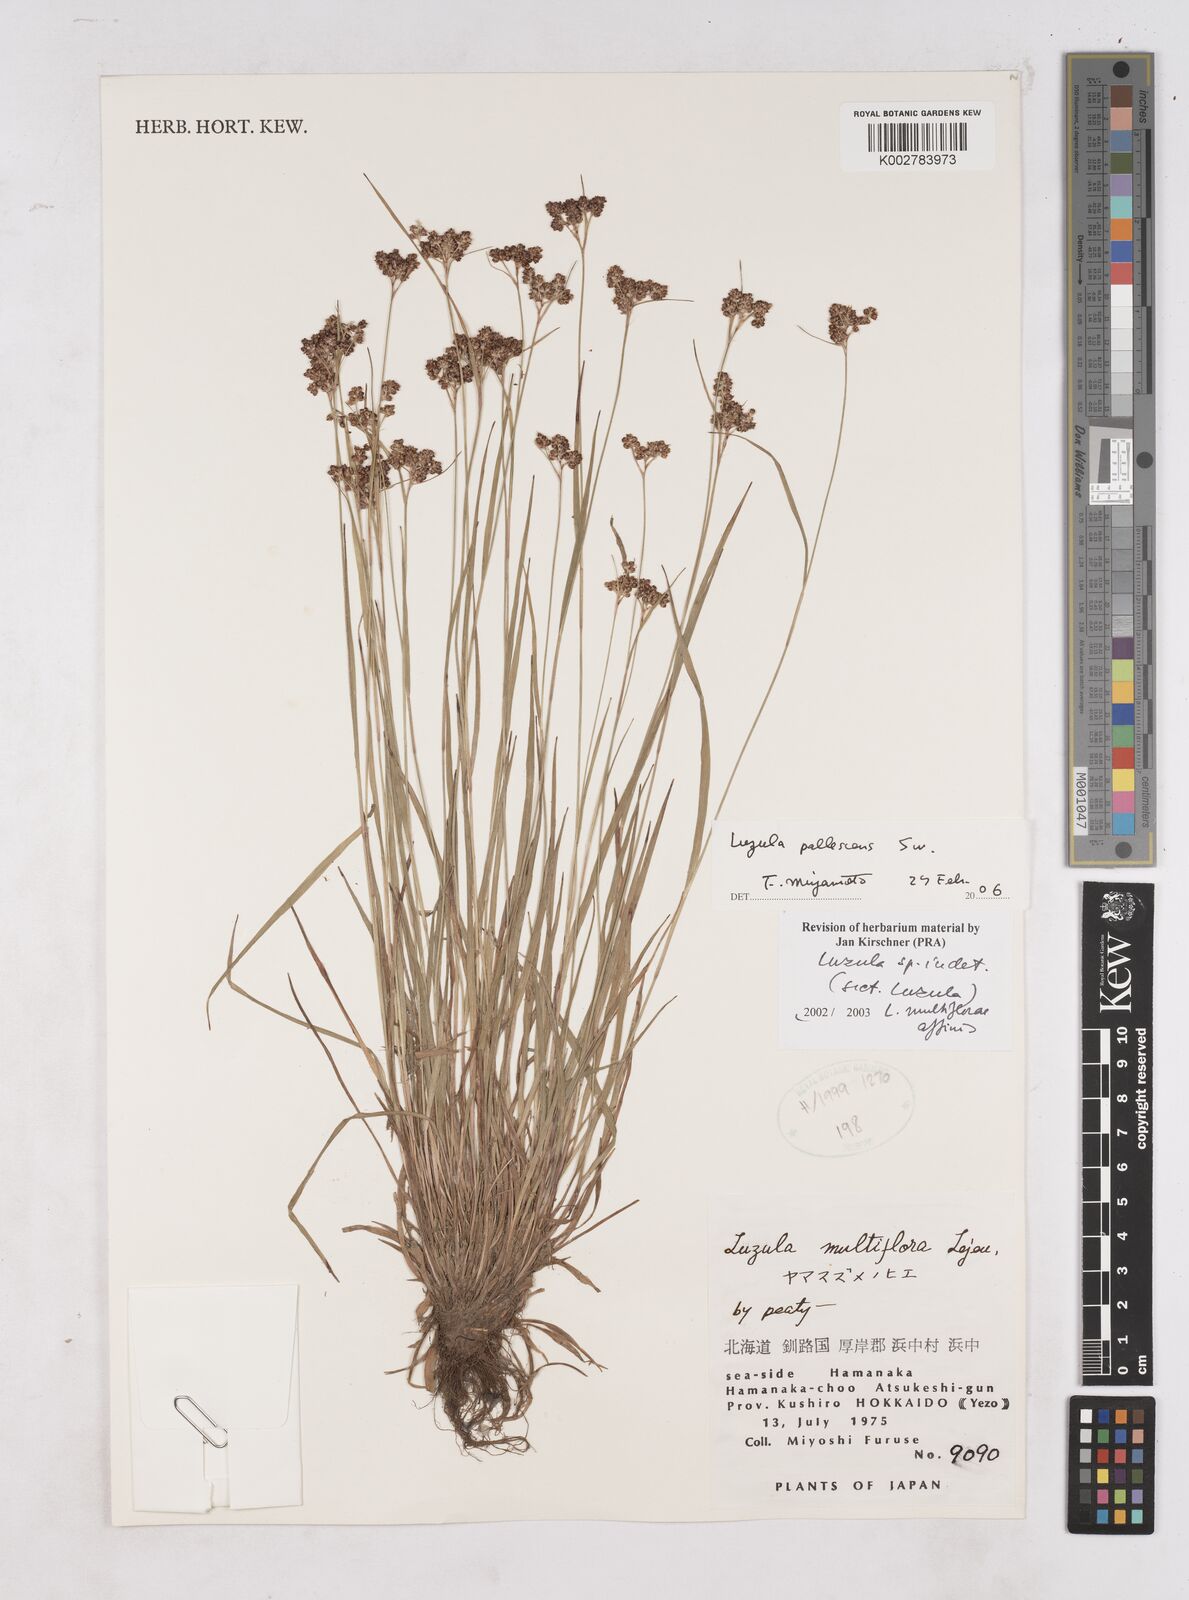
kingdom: Plantae
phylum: Tracheophyta
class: Liliopsida
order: Poales
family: Juncaceae
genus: Luzula
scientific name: Luzula pallescens
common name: Fen wood-rush
